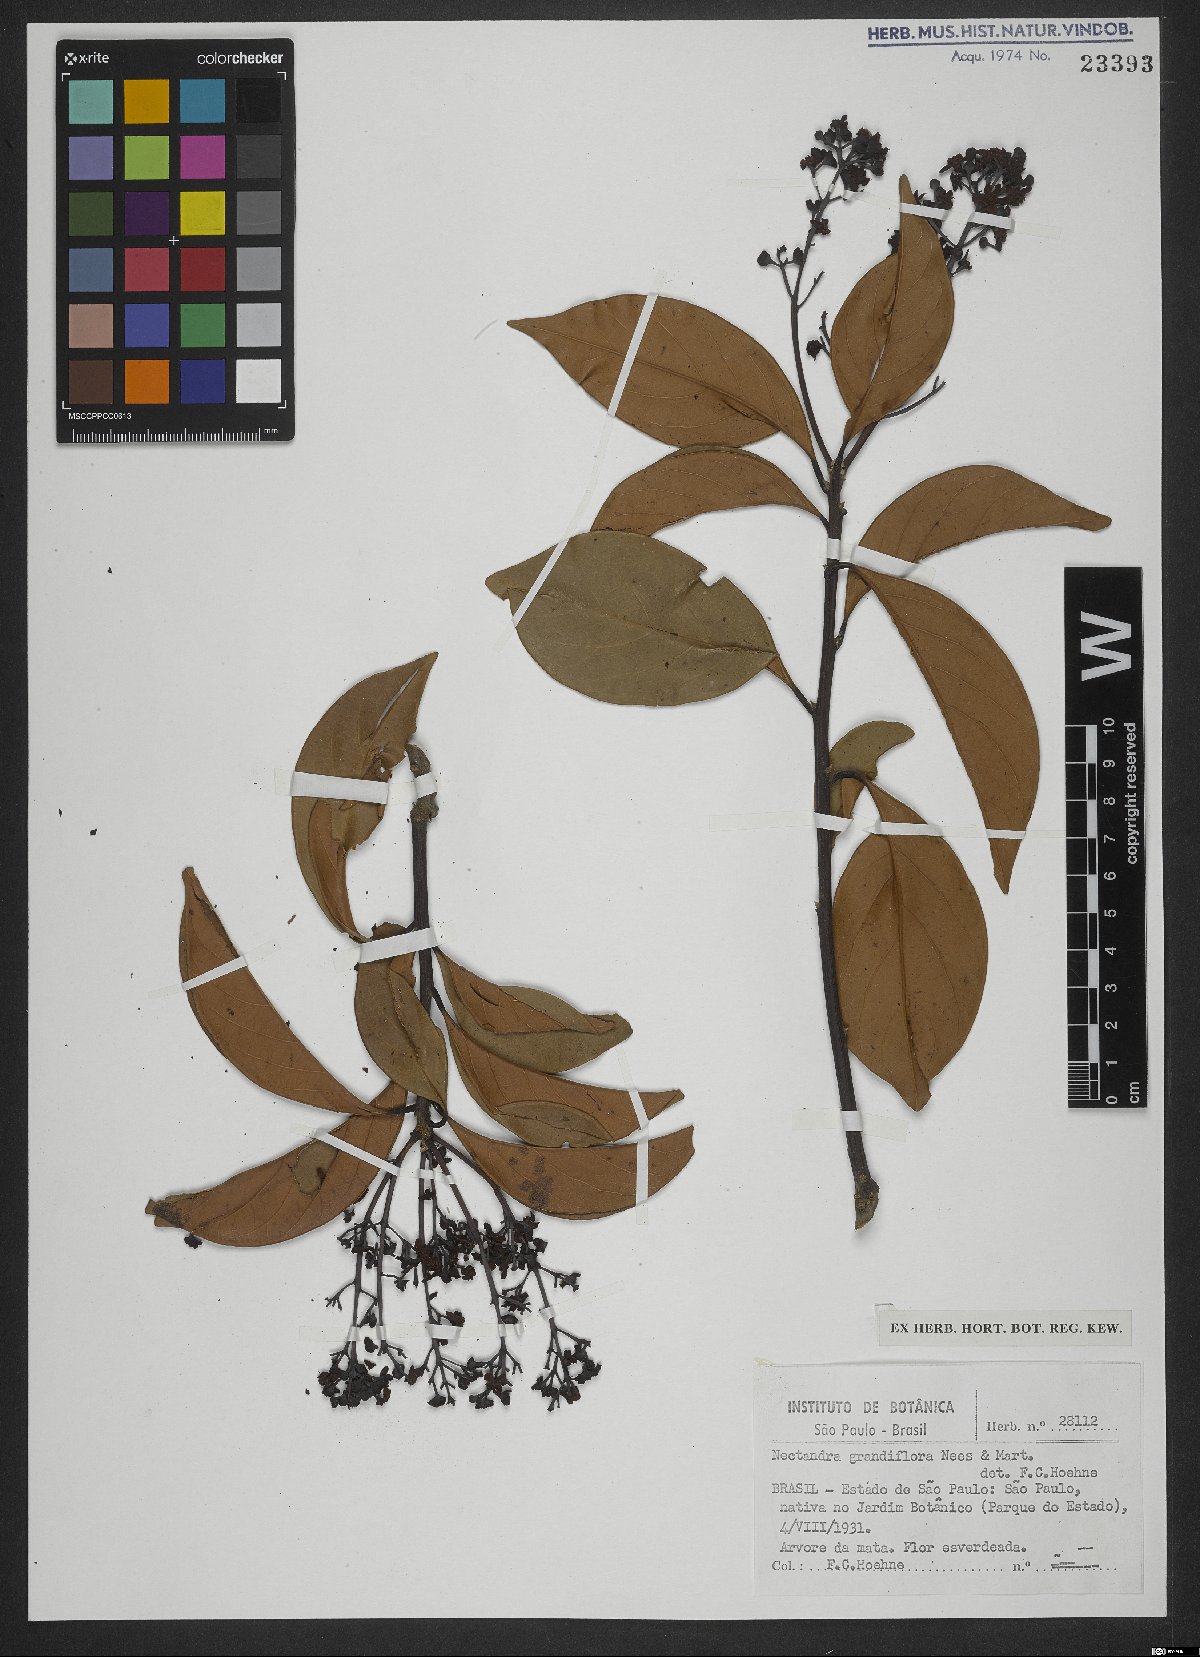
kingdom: Plantae
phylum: Tracheophyta
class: Magnoliopsida
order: Laurales
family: Lauraceae
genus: Nectandra
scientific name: Nectandra grandiflora
